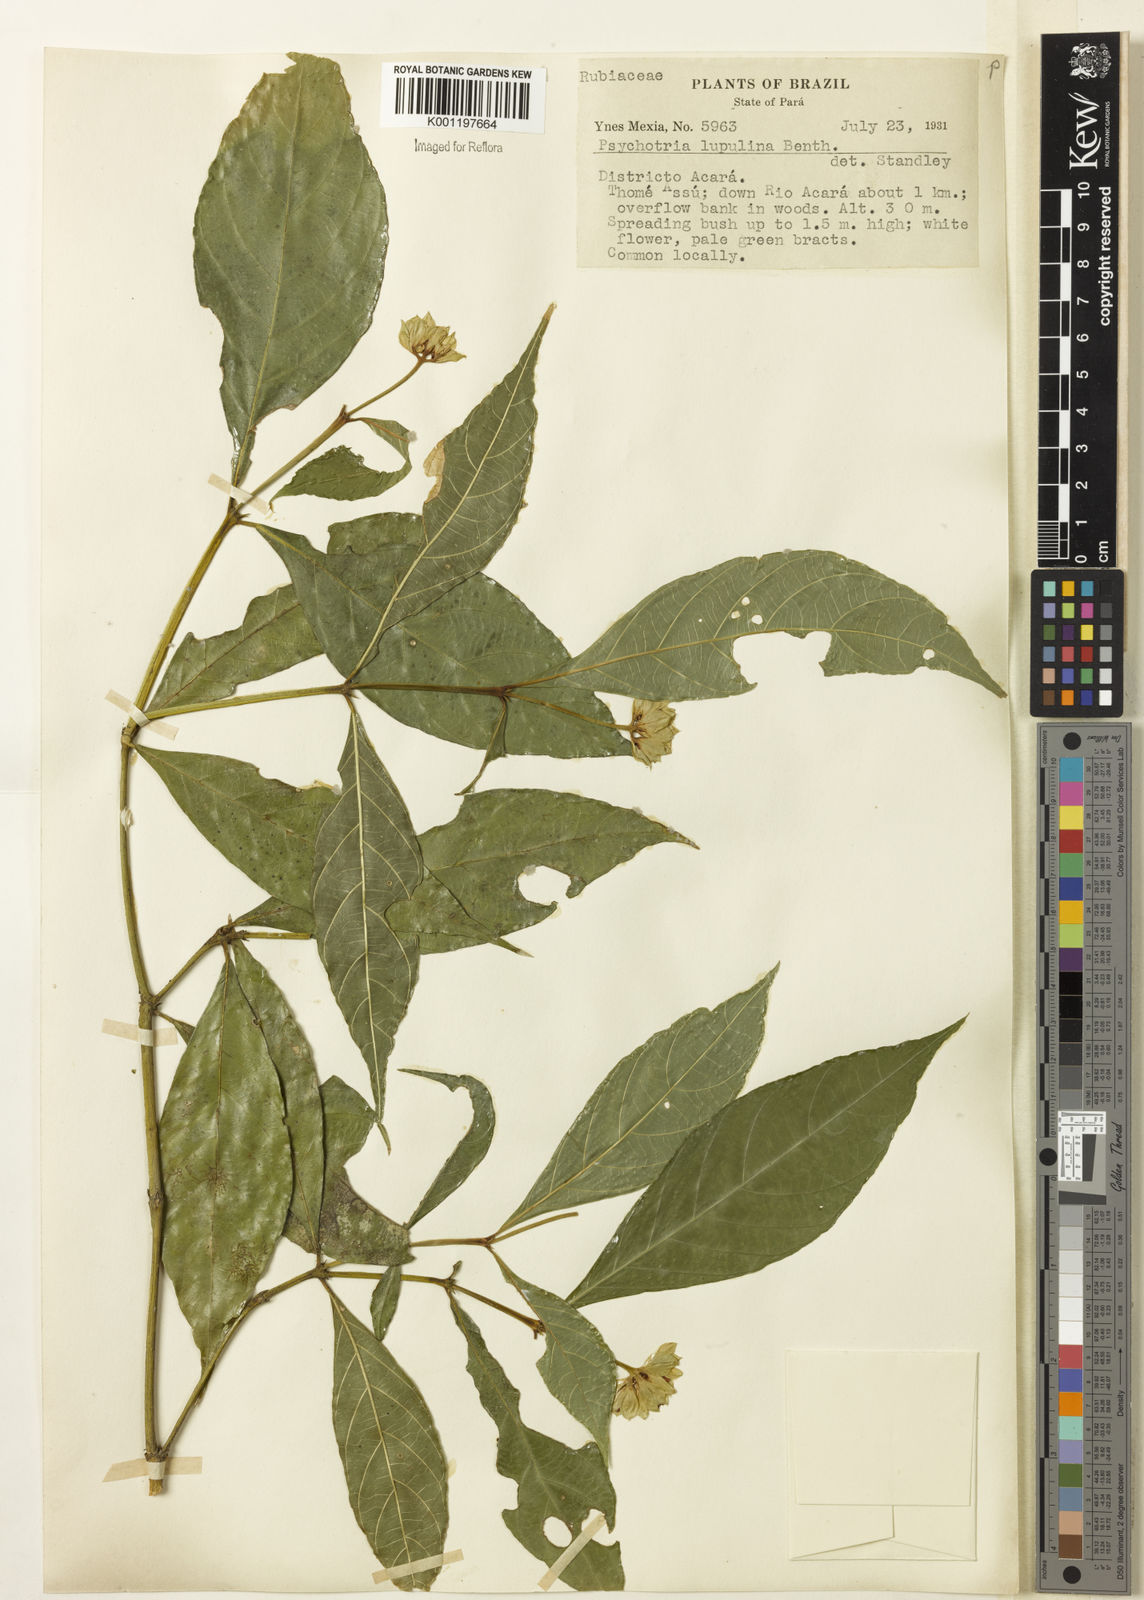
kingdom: Plantae
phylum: Tracheophyta
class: Magnoliopsida
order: Gentianales
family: Rubiaceae
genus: Palicourea
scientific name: Palicourea justiciifolia
